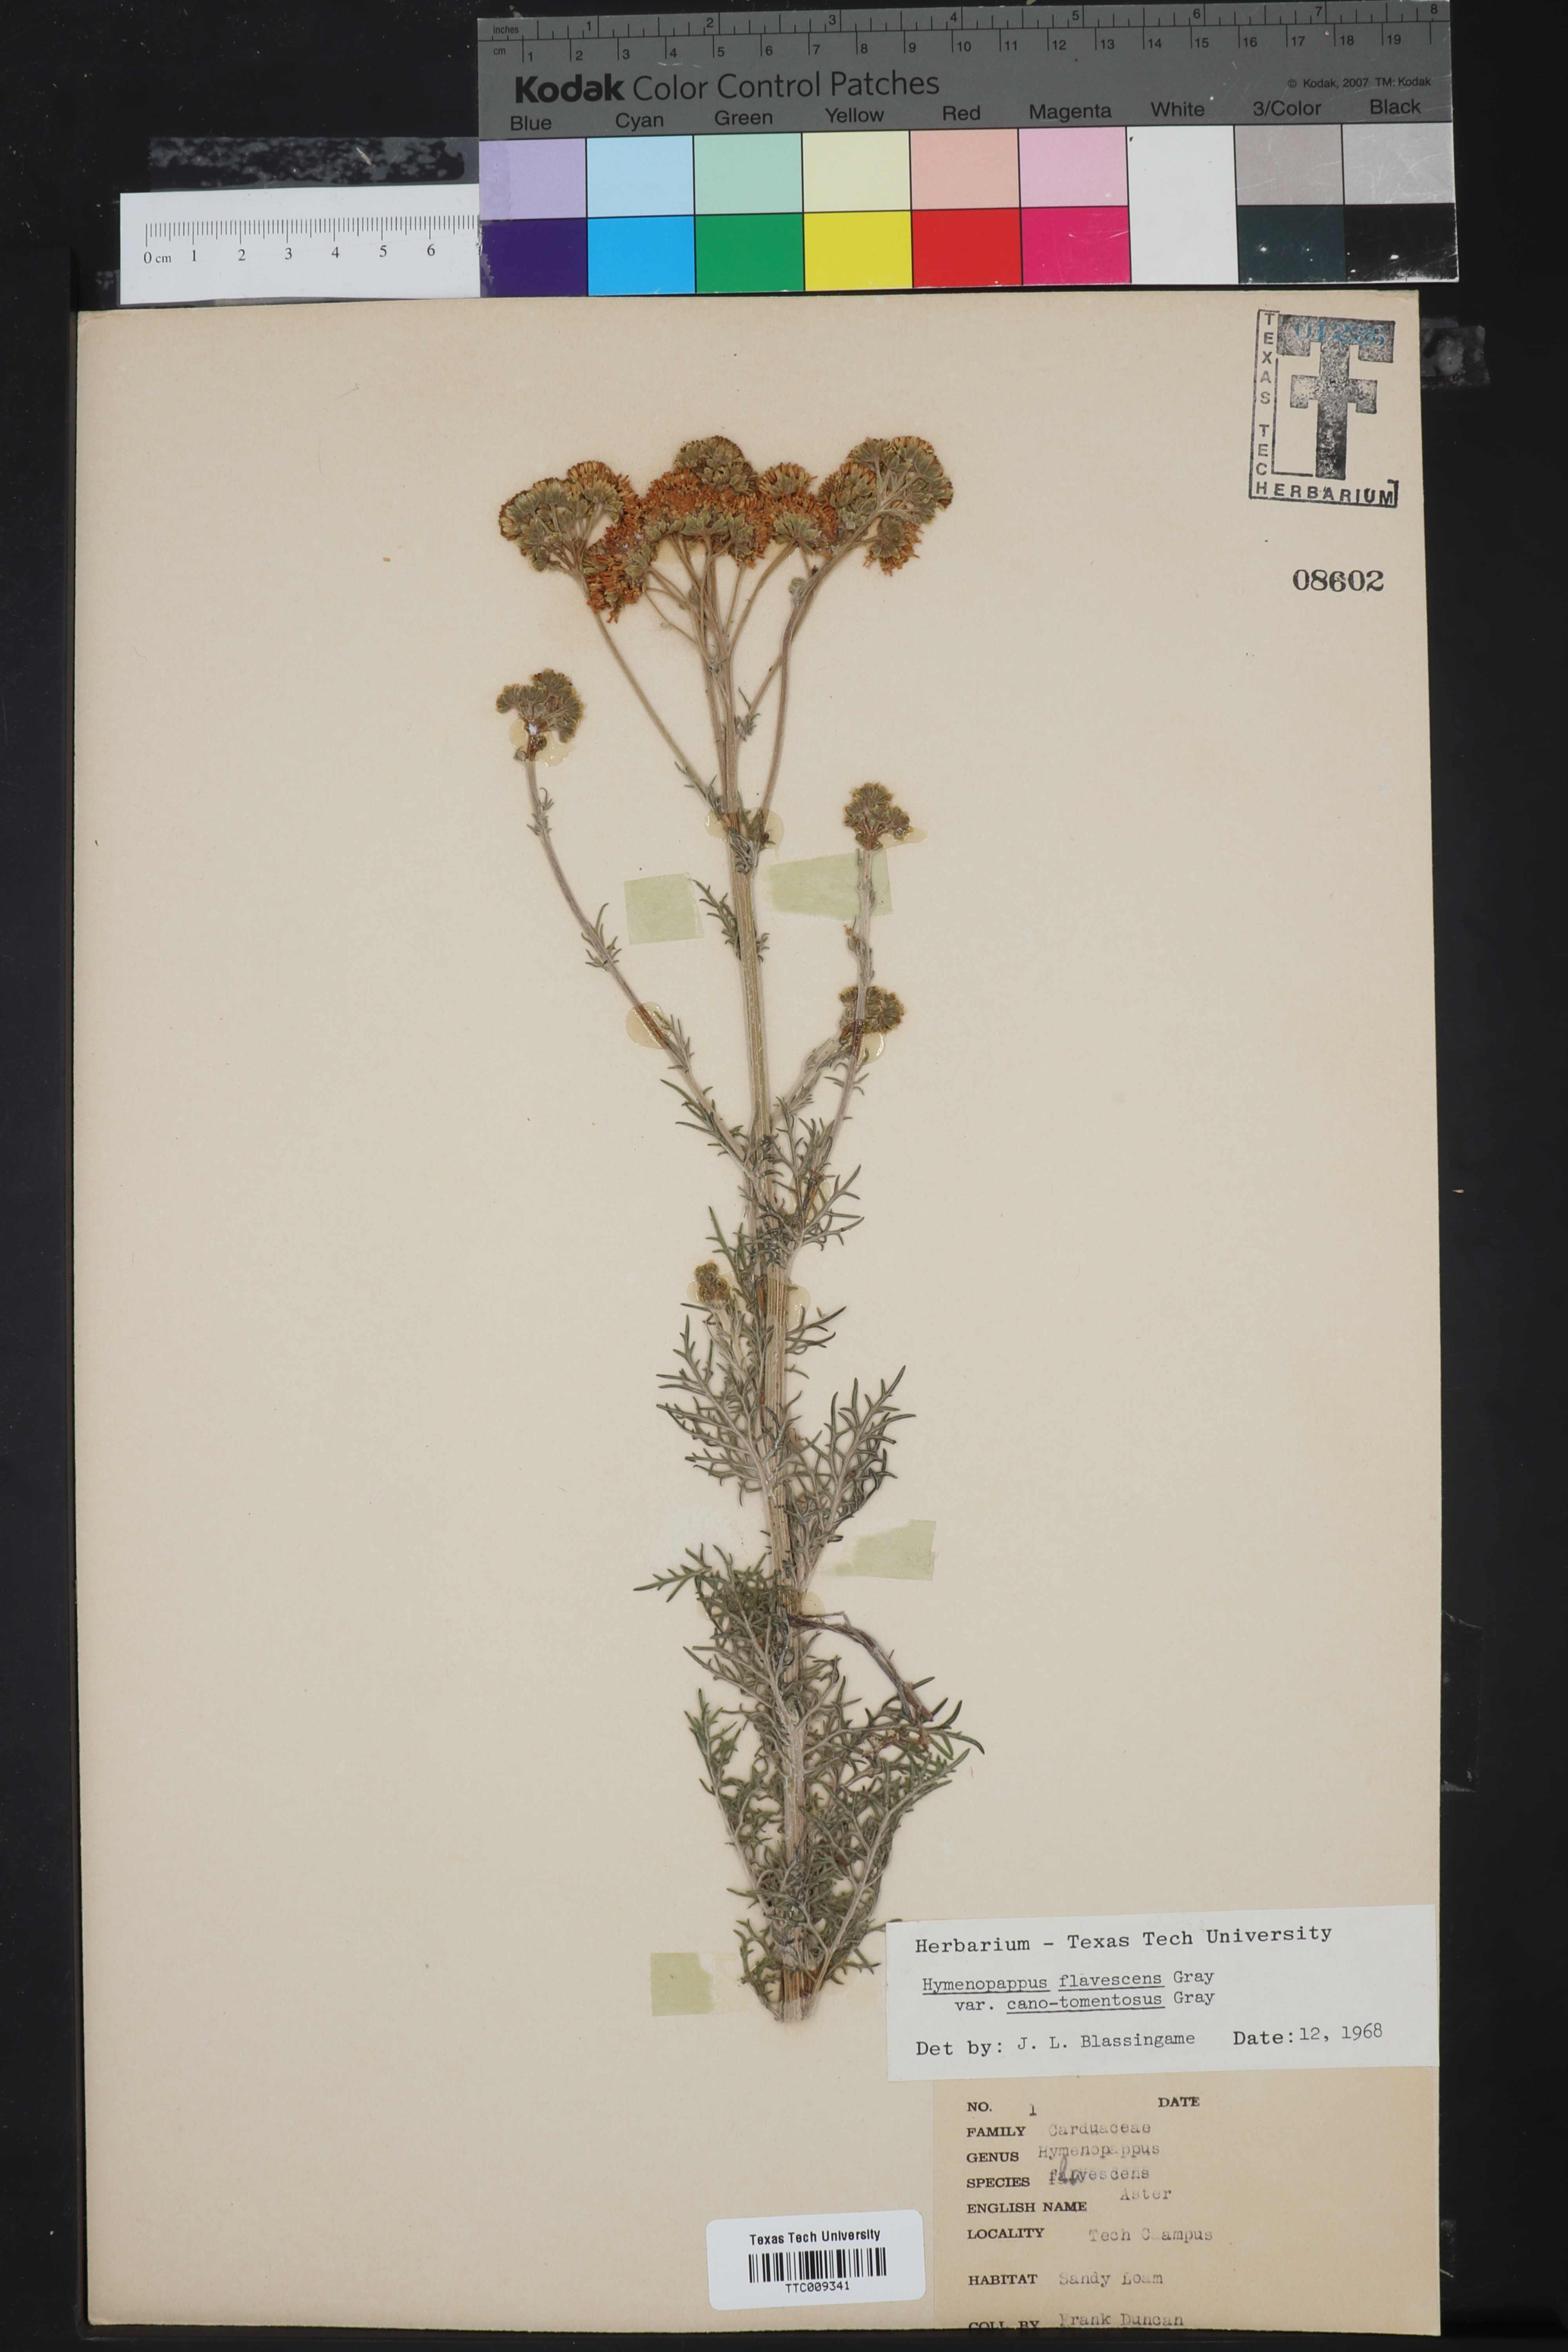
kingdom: Plantae
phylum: Tracheophyta
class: Magnoliopsida
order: Asterales
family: Asteraceae
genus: Hymenopappus
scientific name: Hymenopappus flavescens
